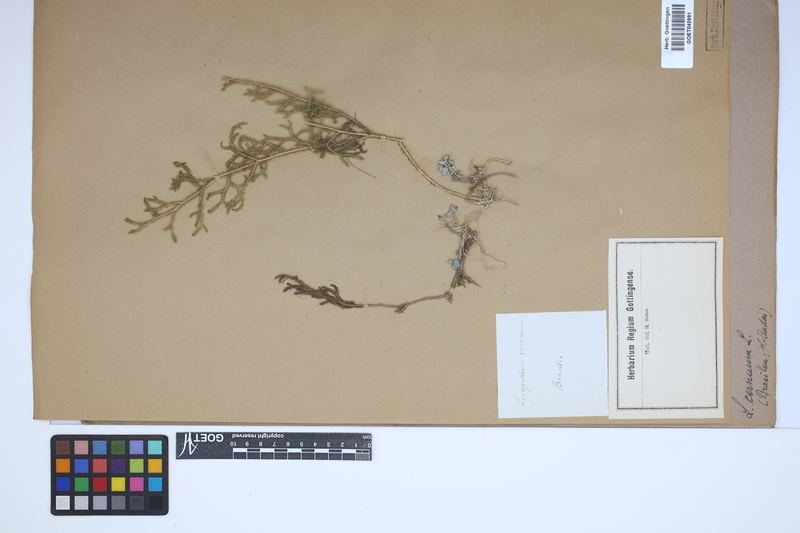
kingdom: Plantae
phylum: Tracheophyta
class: Lycopodiopsida
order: Lycopodiales
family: Lycopodiaceae
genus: Palhinhaea
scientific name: Palhinhaea cernua
